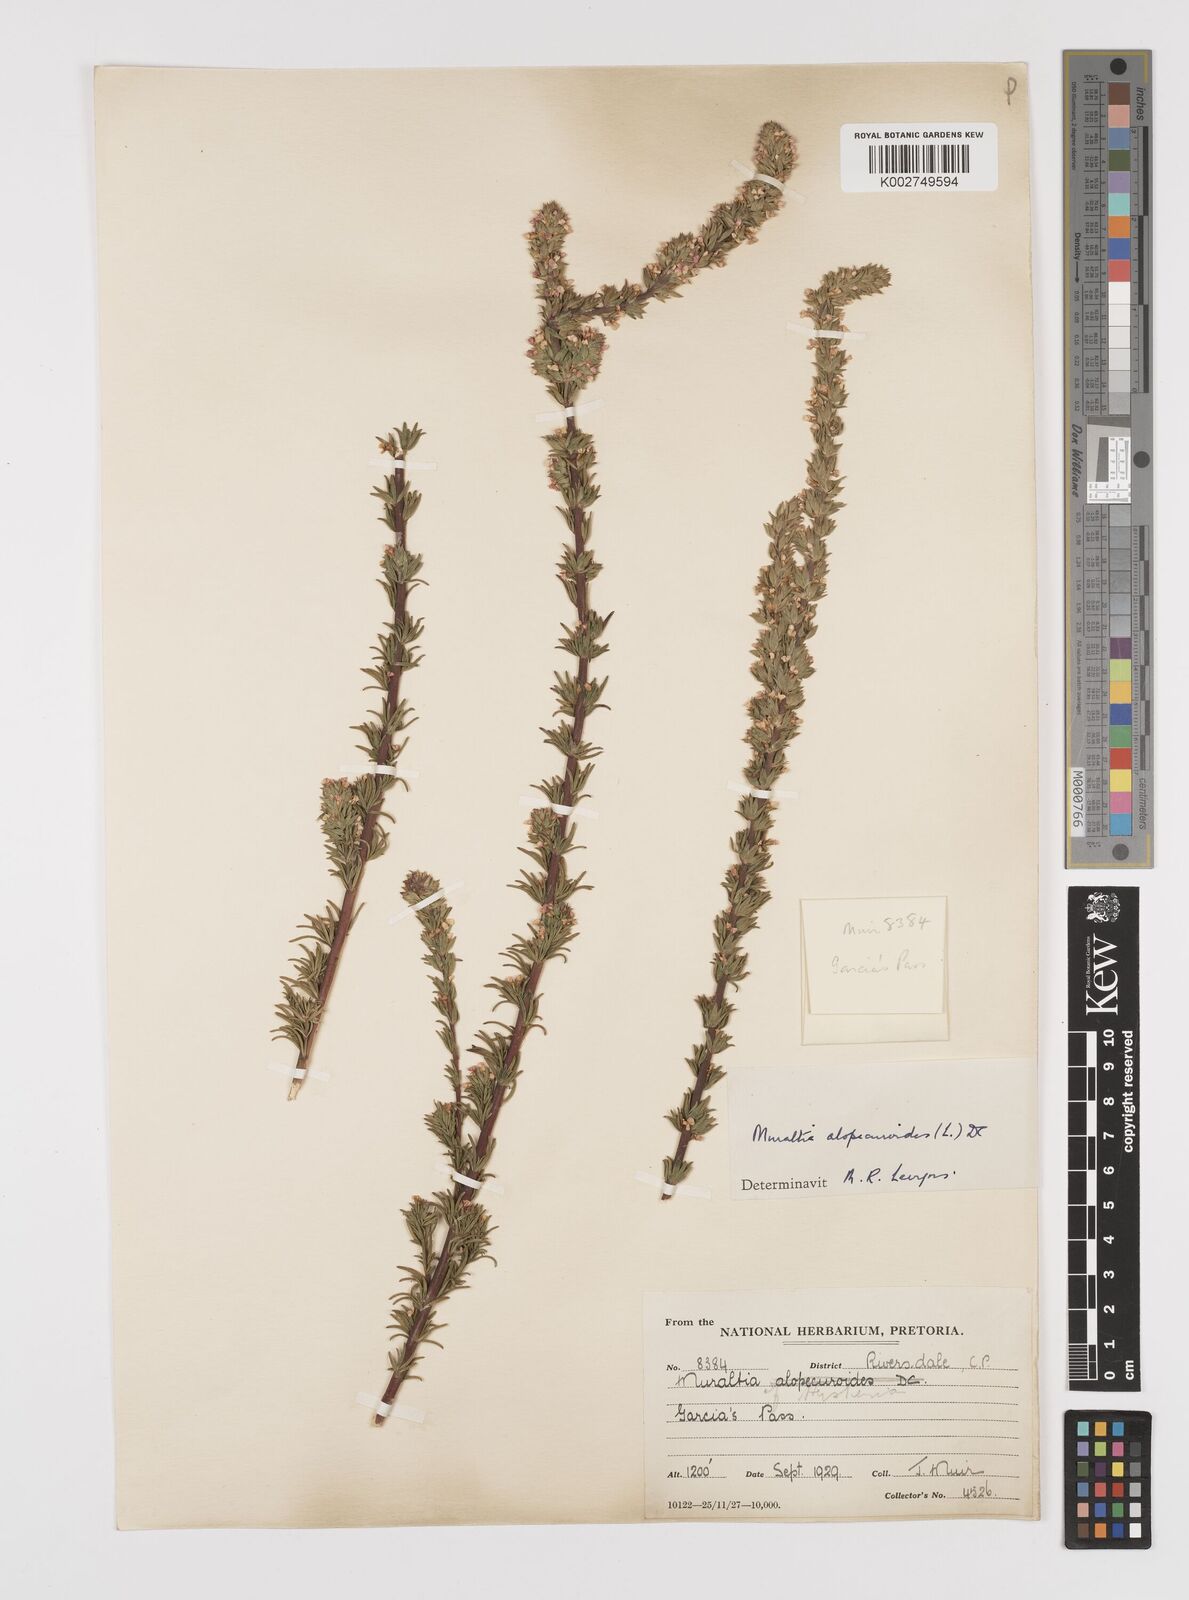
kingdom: Plantae
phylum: Tracheophyta
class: Magnoliopsida
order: Fabales
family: Polygalaceae
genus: Muraltia
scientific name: Muraltia alopecuroides
